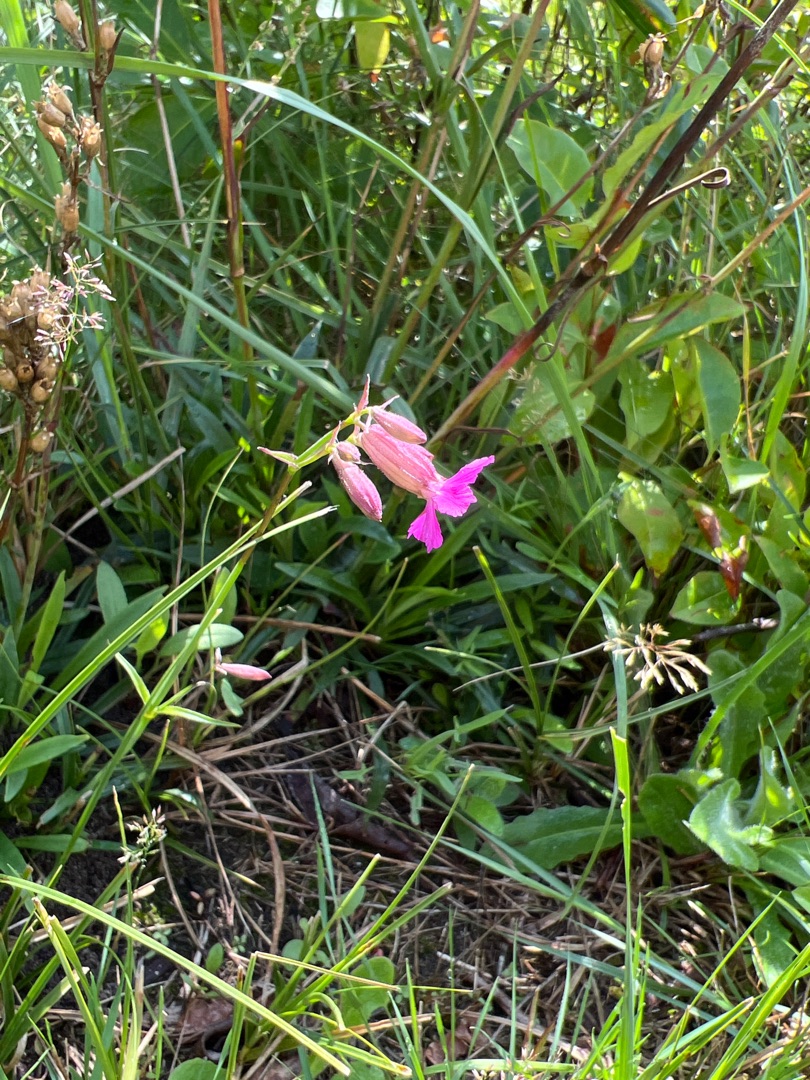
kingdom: Plantae
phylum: Tracheophyta
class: Magnoliopsida
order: Caryophyllales
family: Caryophyllaceae
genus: Viscaria
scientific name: Viscaria vulgaris
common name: Tjærenellike
